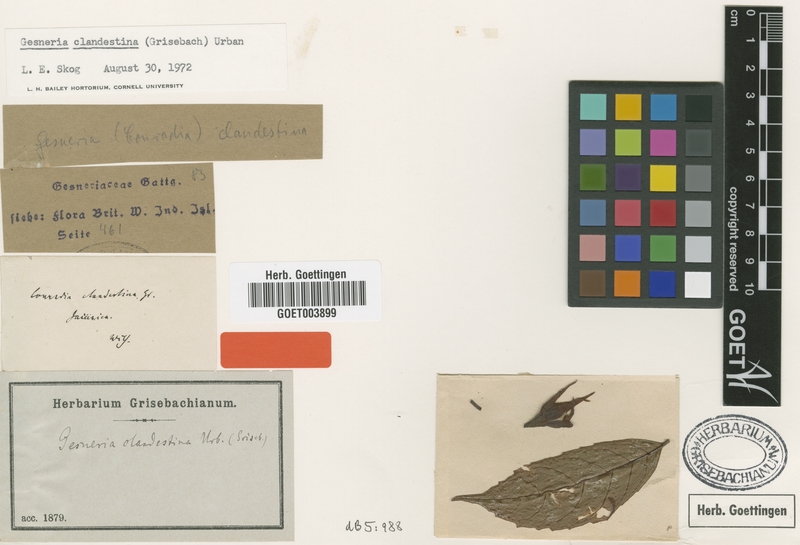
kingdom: Plantae
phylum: Tracheophyta
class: Magnoliopsida
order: Lamiales
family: Gesneriaceae
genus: Gesneria
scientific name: Gesneria clandestina
